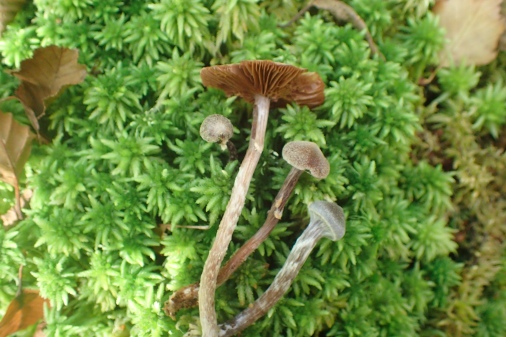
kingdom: Fungi
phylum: Basidiomycota
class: Agaricomycetes
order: Agaricales
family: Cortinariaceae
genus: Cortinarius
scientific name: Cortinarius
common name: pelargonie-slørhat
